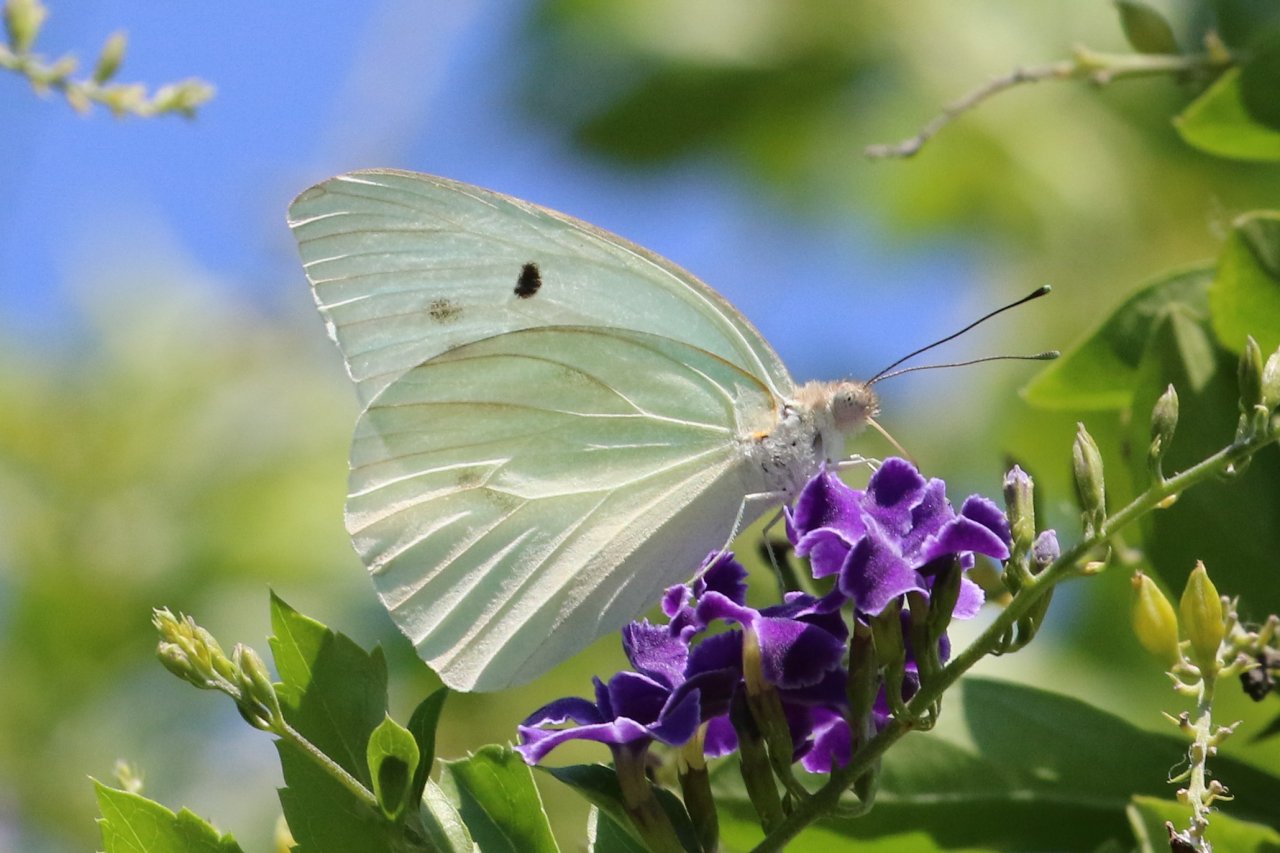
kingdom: Animalia
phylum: Arthropoda
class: Insecta
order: Lepidoptera
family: Pieridae
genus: Ganyra
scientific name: Ganyra josephina
